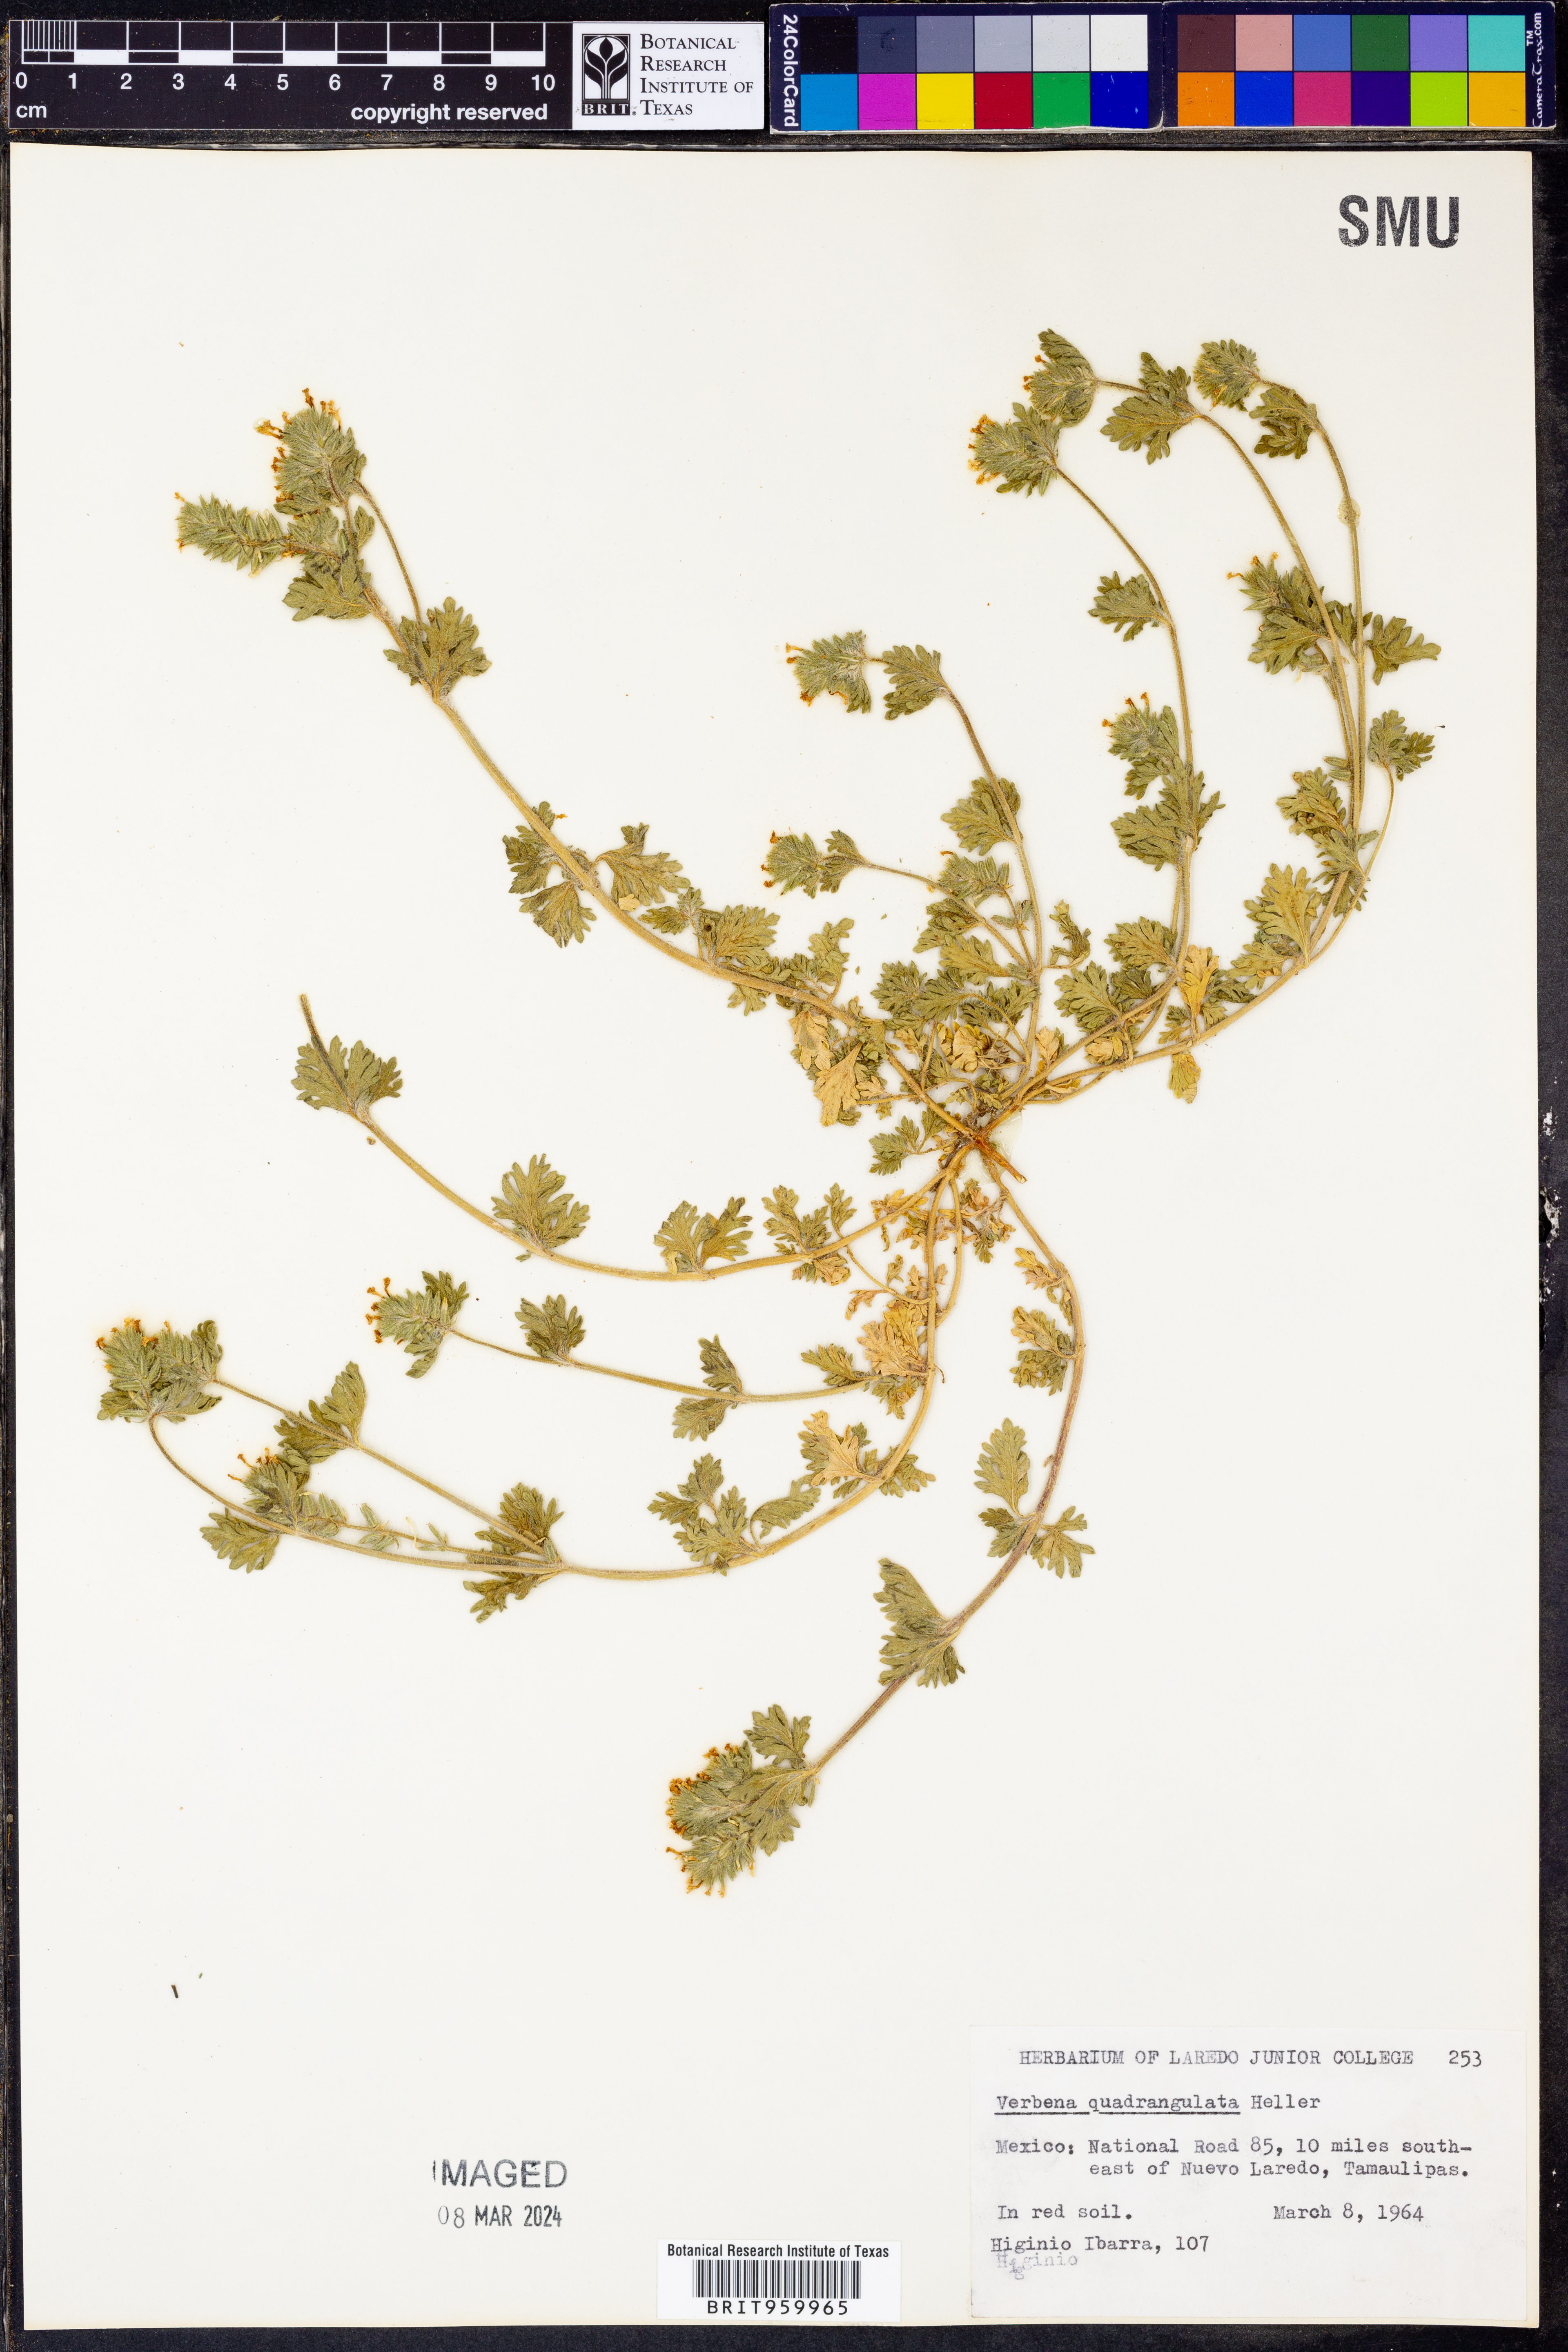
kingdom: Plantae
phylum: Tracheophyta
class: Magnoliopsida
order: Lamiales
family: Verbenaceae
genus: Verbena
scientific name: Verbena quadrangulata
